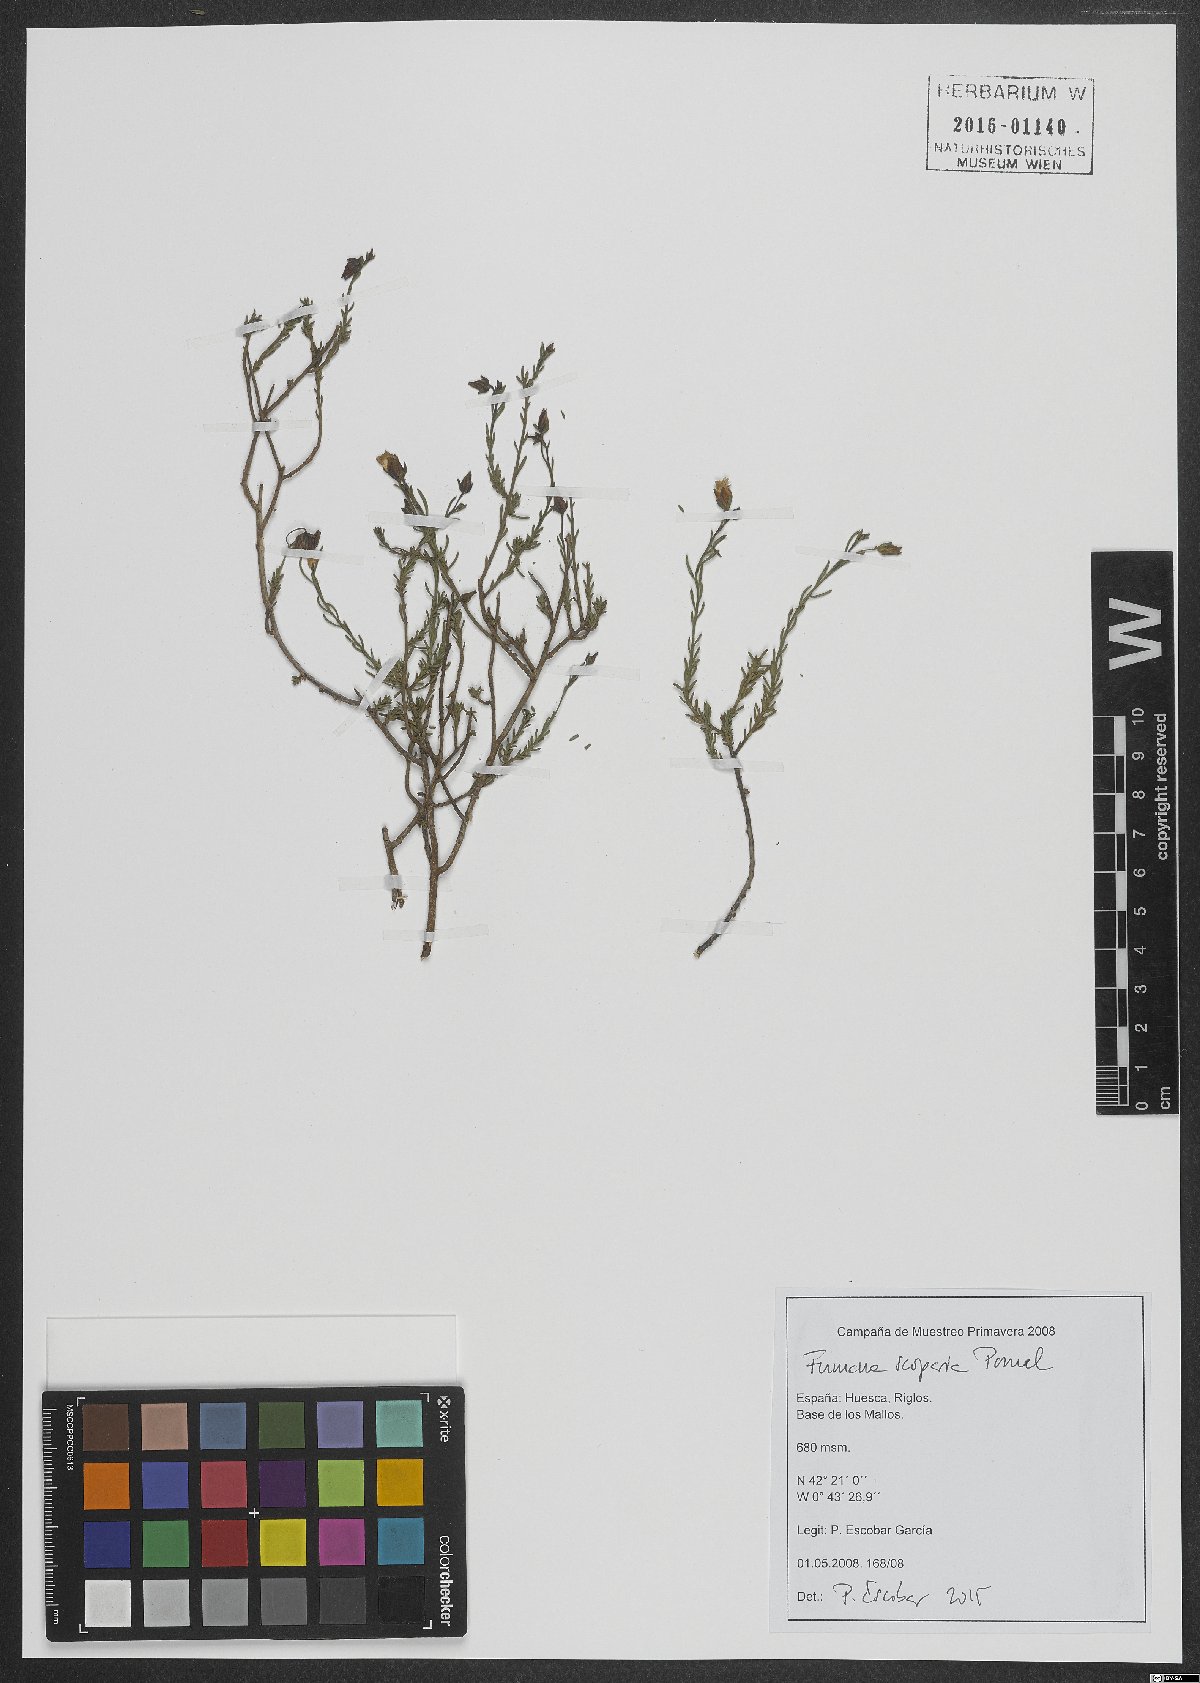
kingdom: Plantae
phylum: Tracheophyta
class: Magnoliopsida
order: Malvales
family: Cistaceae
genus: Fumana
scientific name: Fumana scoparia
